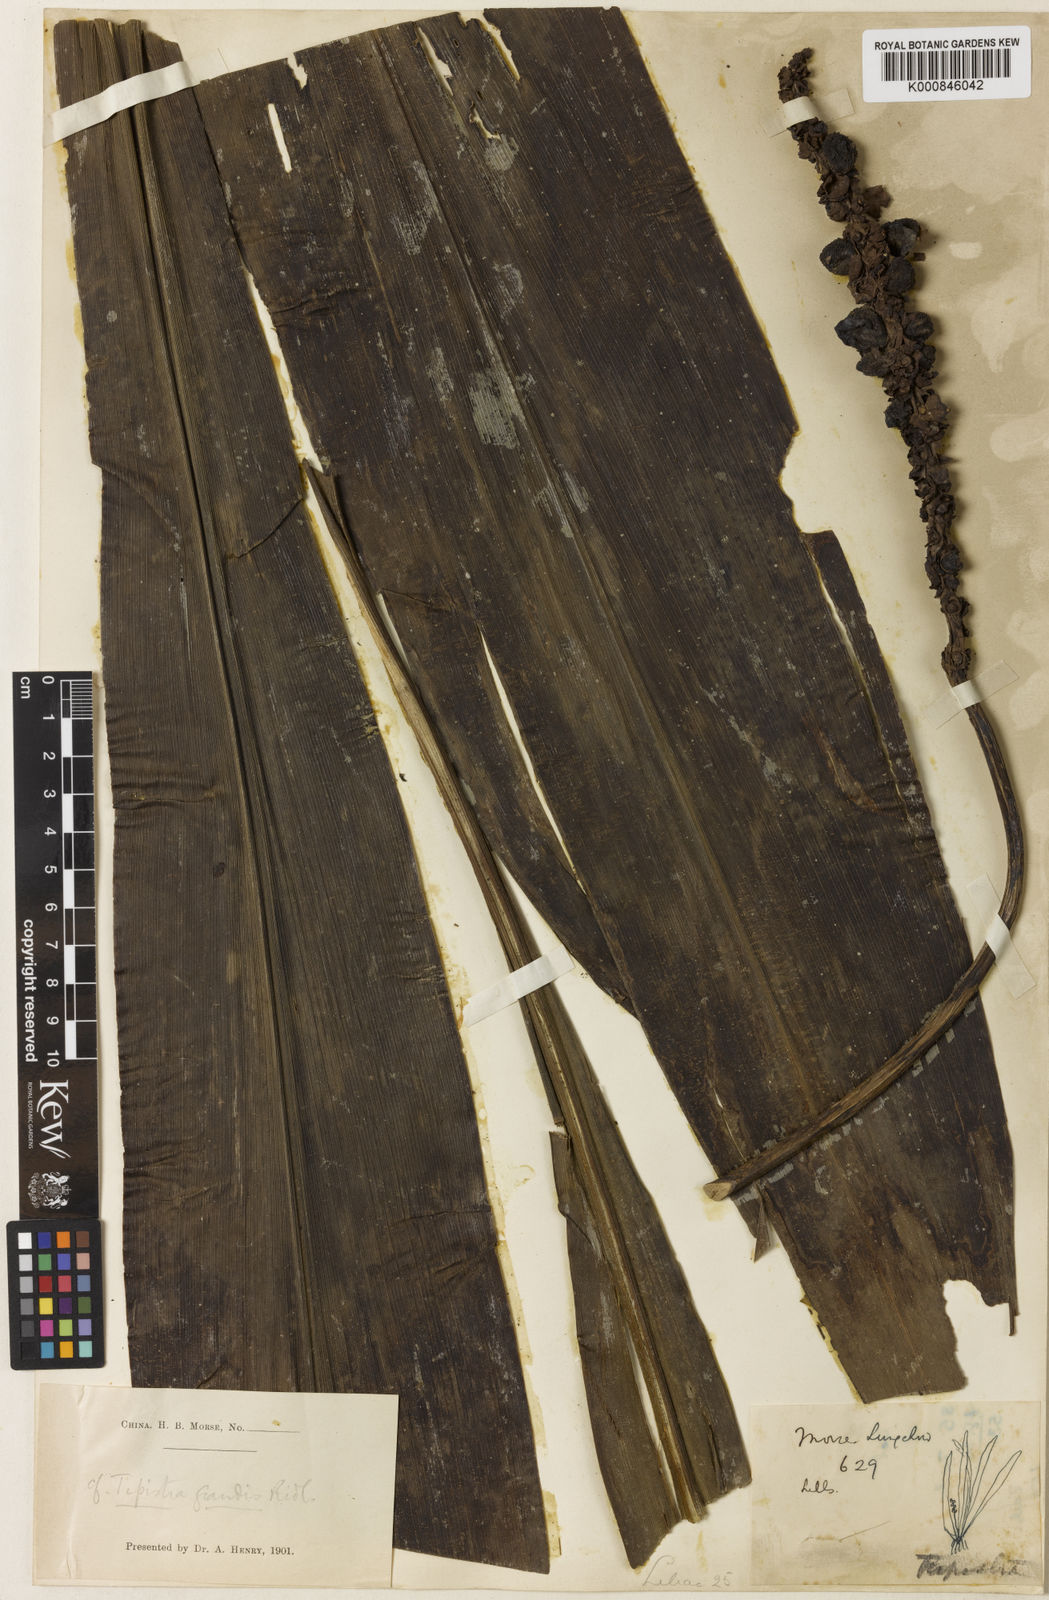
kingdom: Plantae
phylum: Tracheophyta
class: Liliopsida
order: Asparagales
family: Asparagaceae
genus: Tupistra
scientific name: Tupistra
